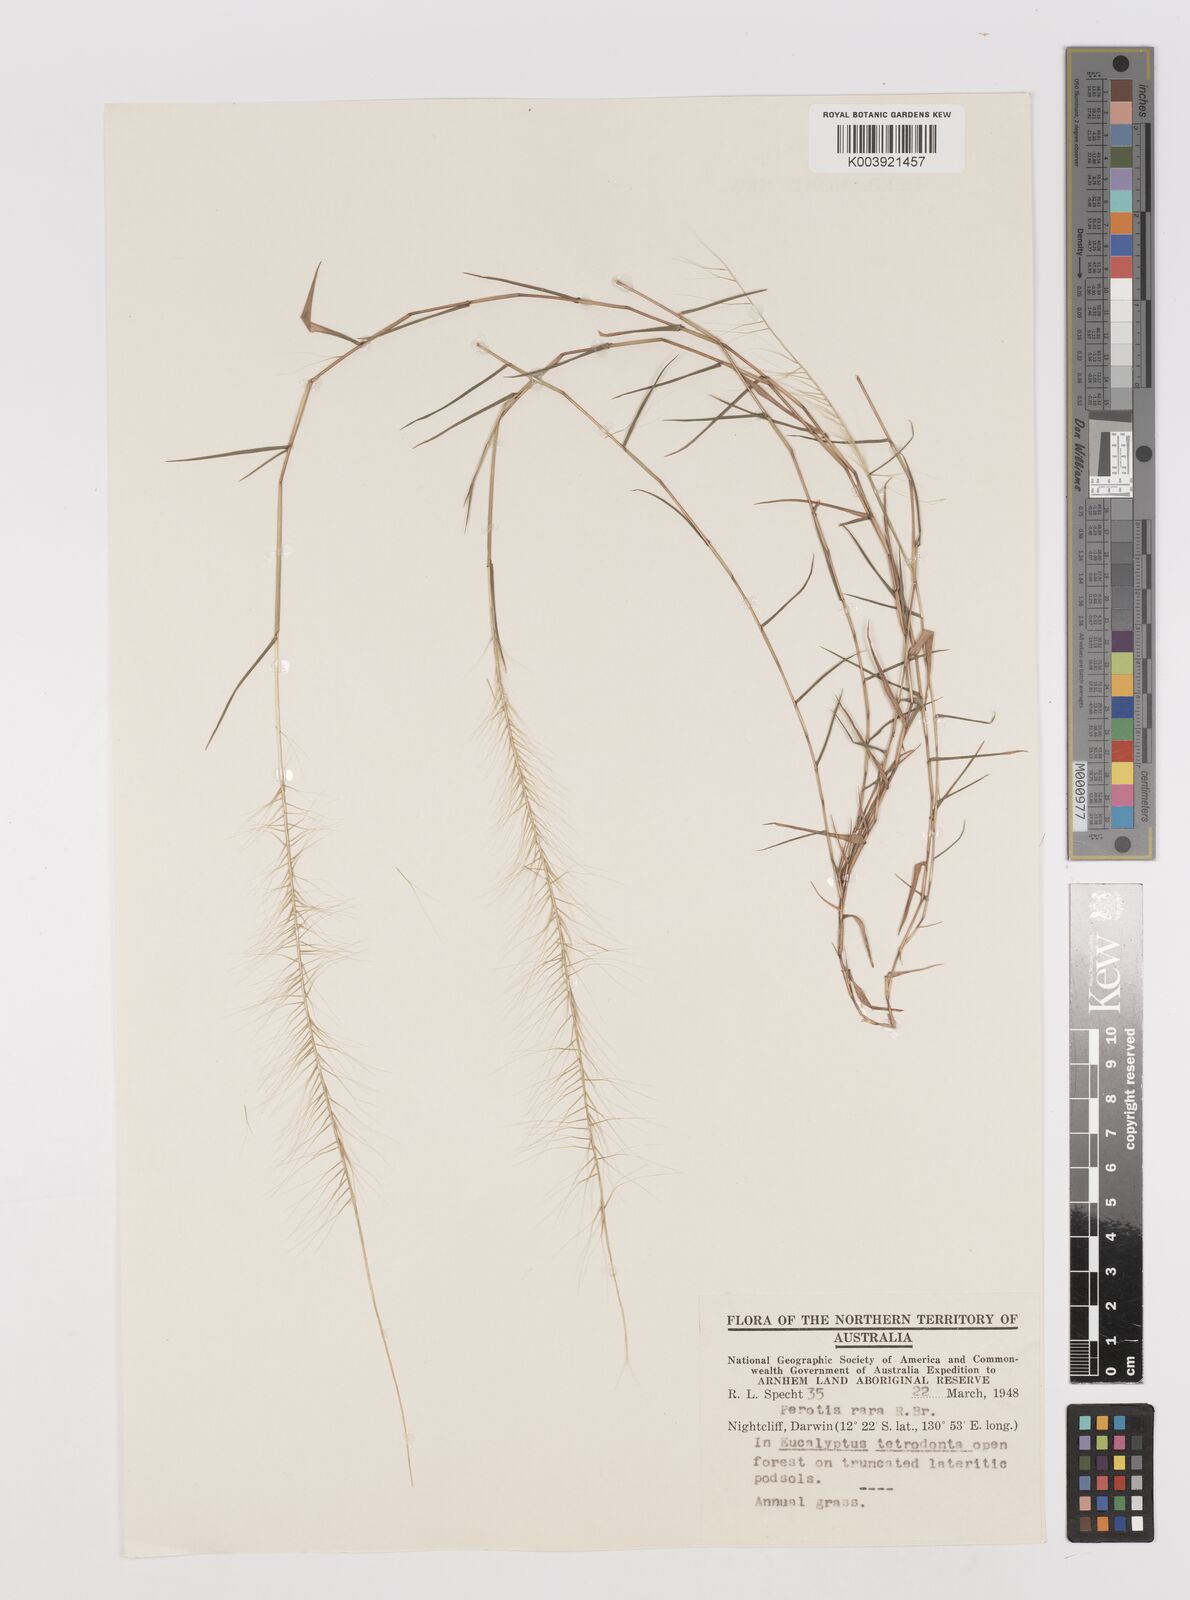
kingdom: Plantae
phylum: Tracheophyta
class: Liliopsida
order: Poales
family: Poaceae
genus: Perotis
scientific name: Perotis rara
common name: Comet grass
